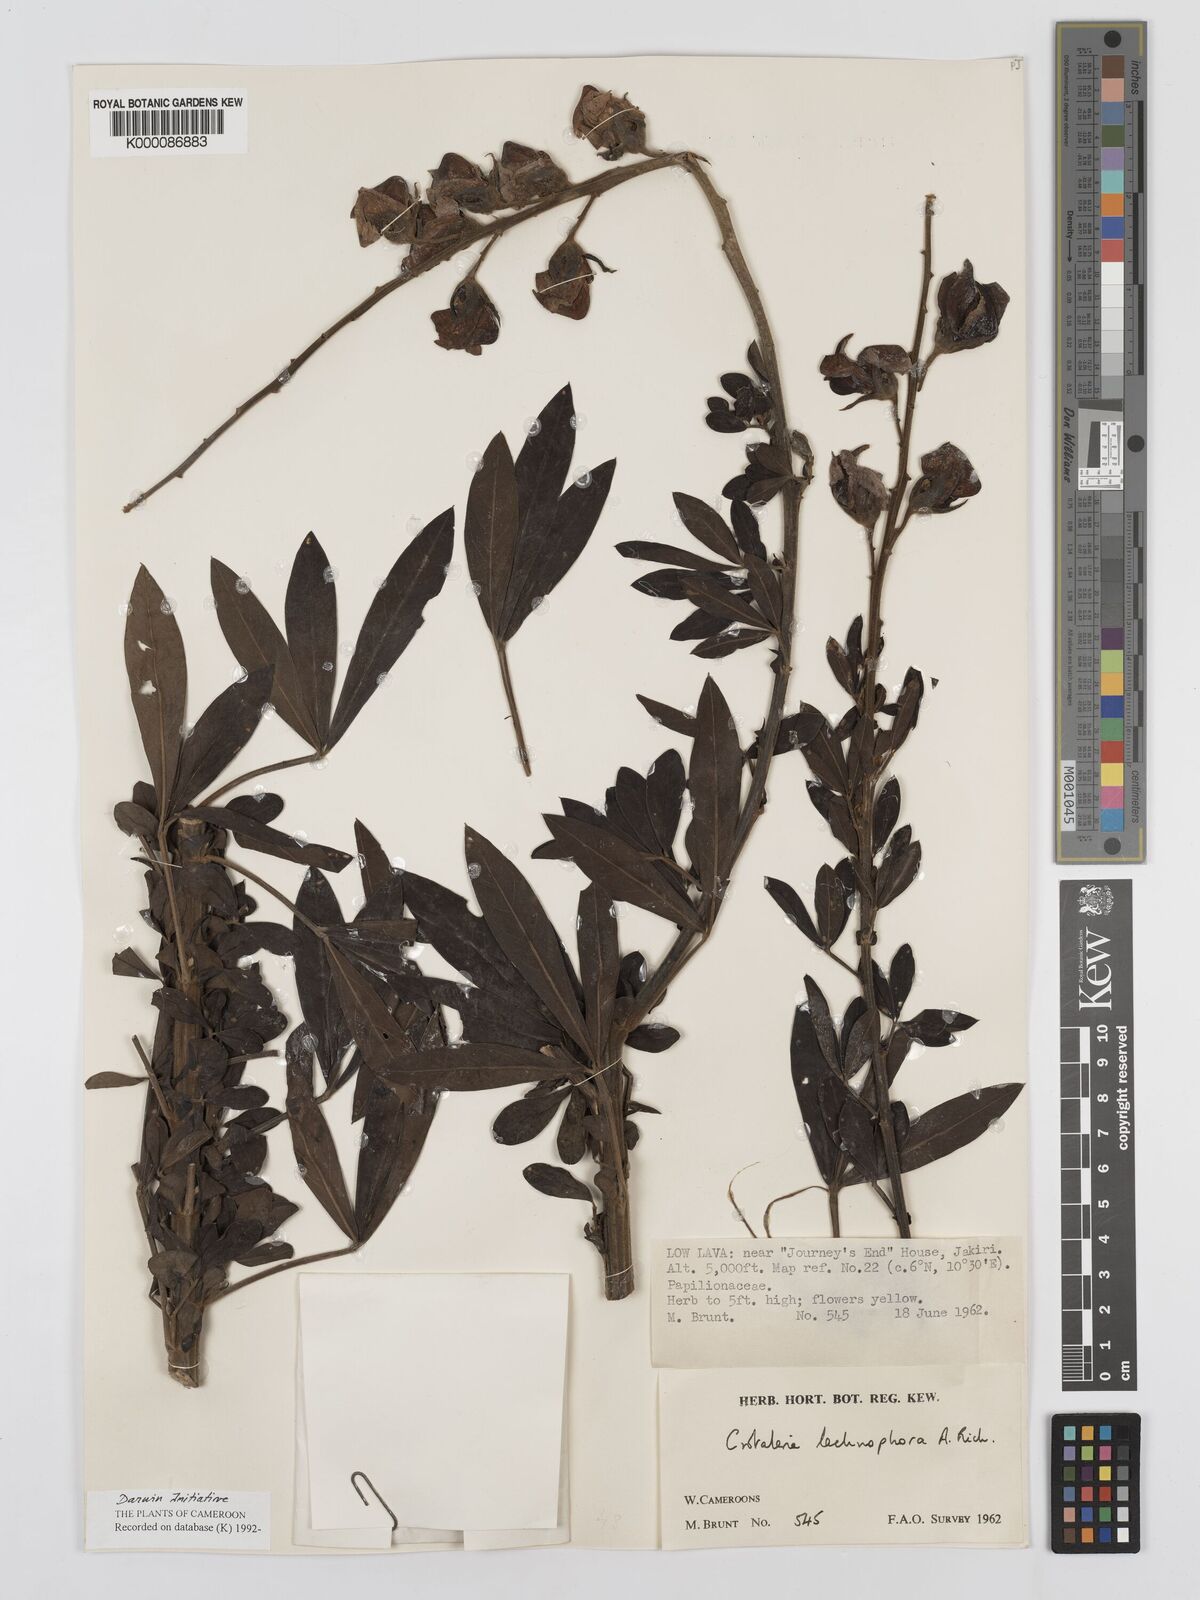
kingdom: Plantae
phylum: Tracheophyta
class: Magnoliopsida
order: Fabales
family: Fabaceae
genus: Crotalaria
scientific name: Crotalaria lachnophora
